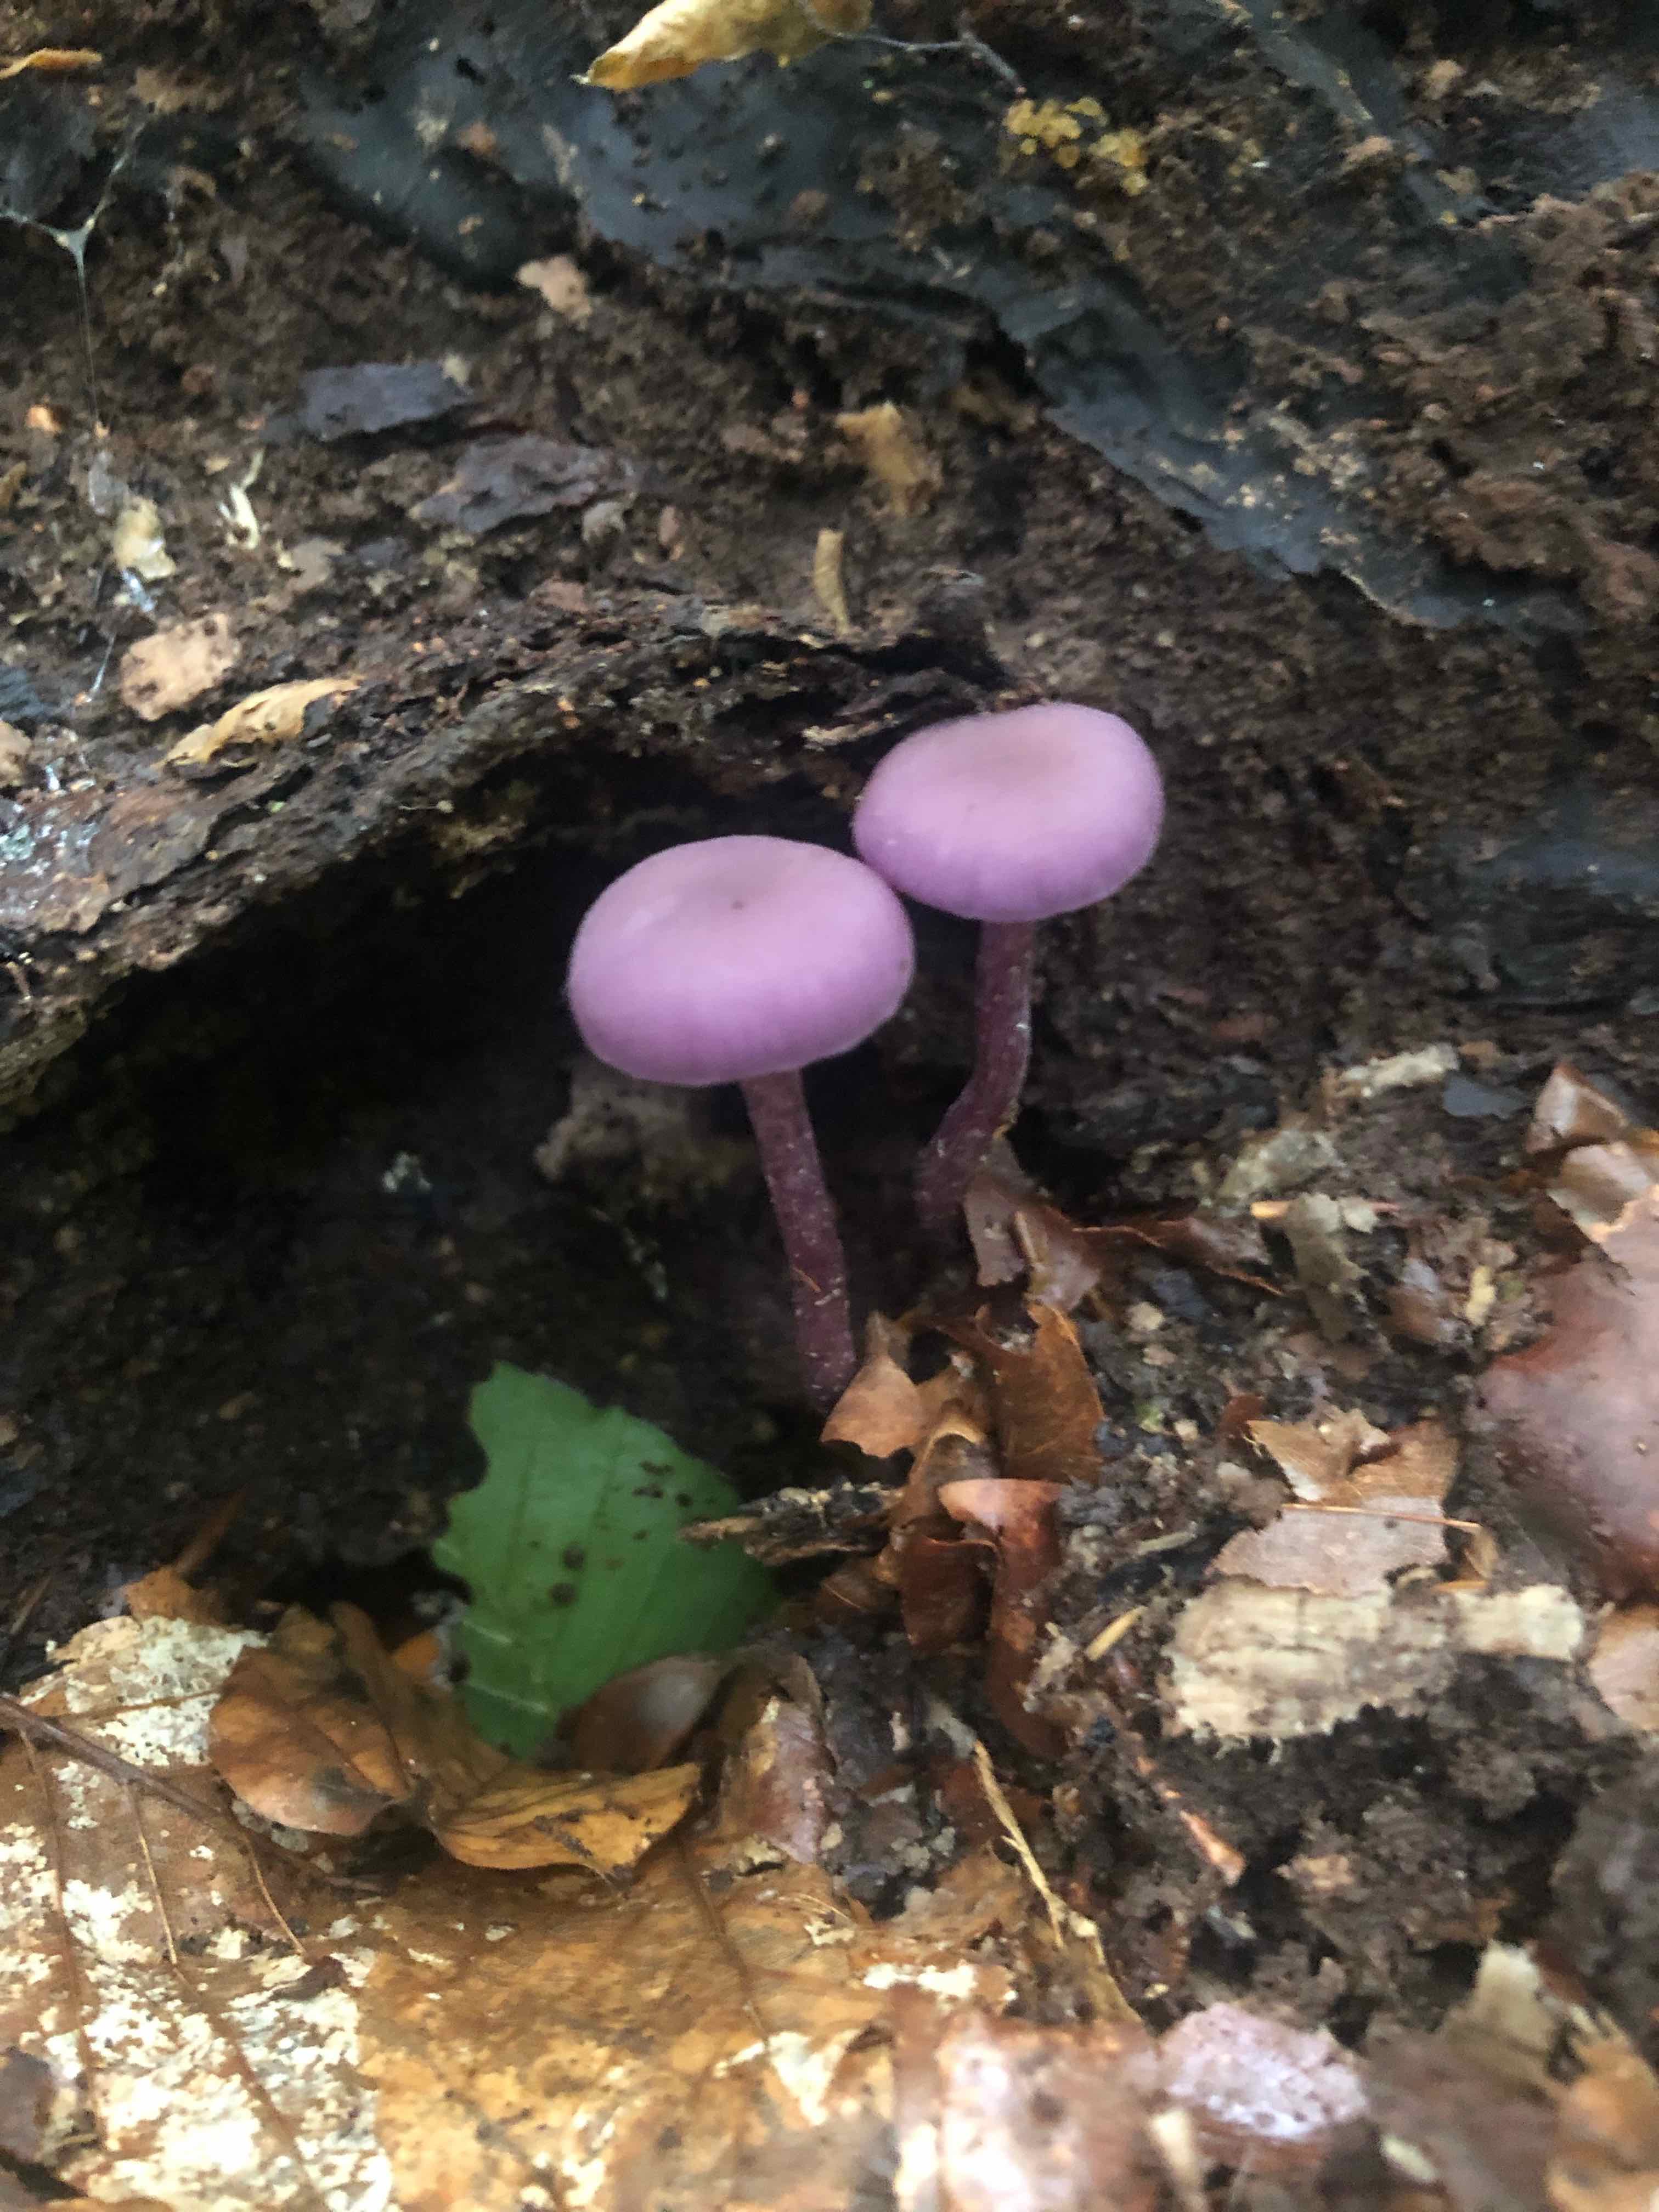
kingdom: Fungi
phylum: Basidiomycota
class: Agaricomycetes
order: Agaricales
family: Hydnangiaceae
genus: Laccaria
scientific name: Laccaria amethystina
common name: violet ametysthat
